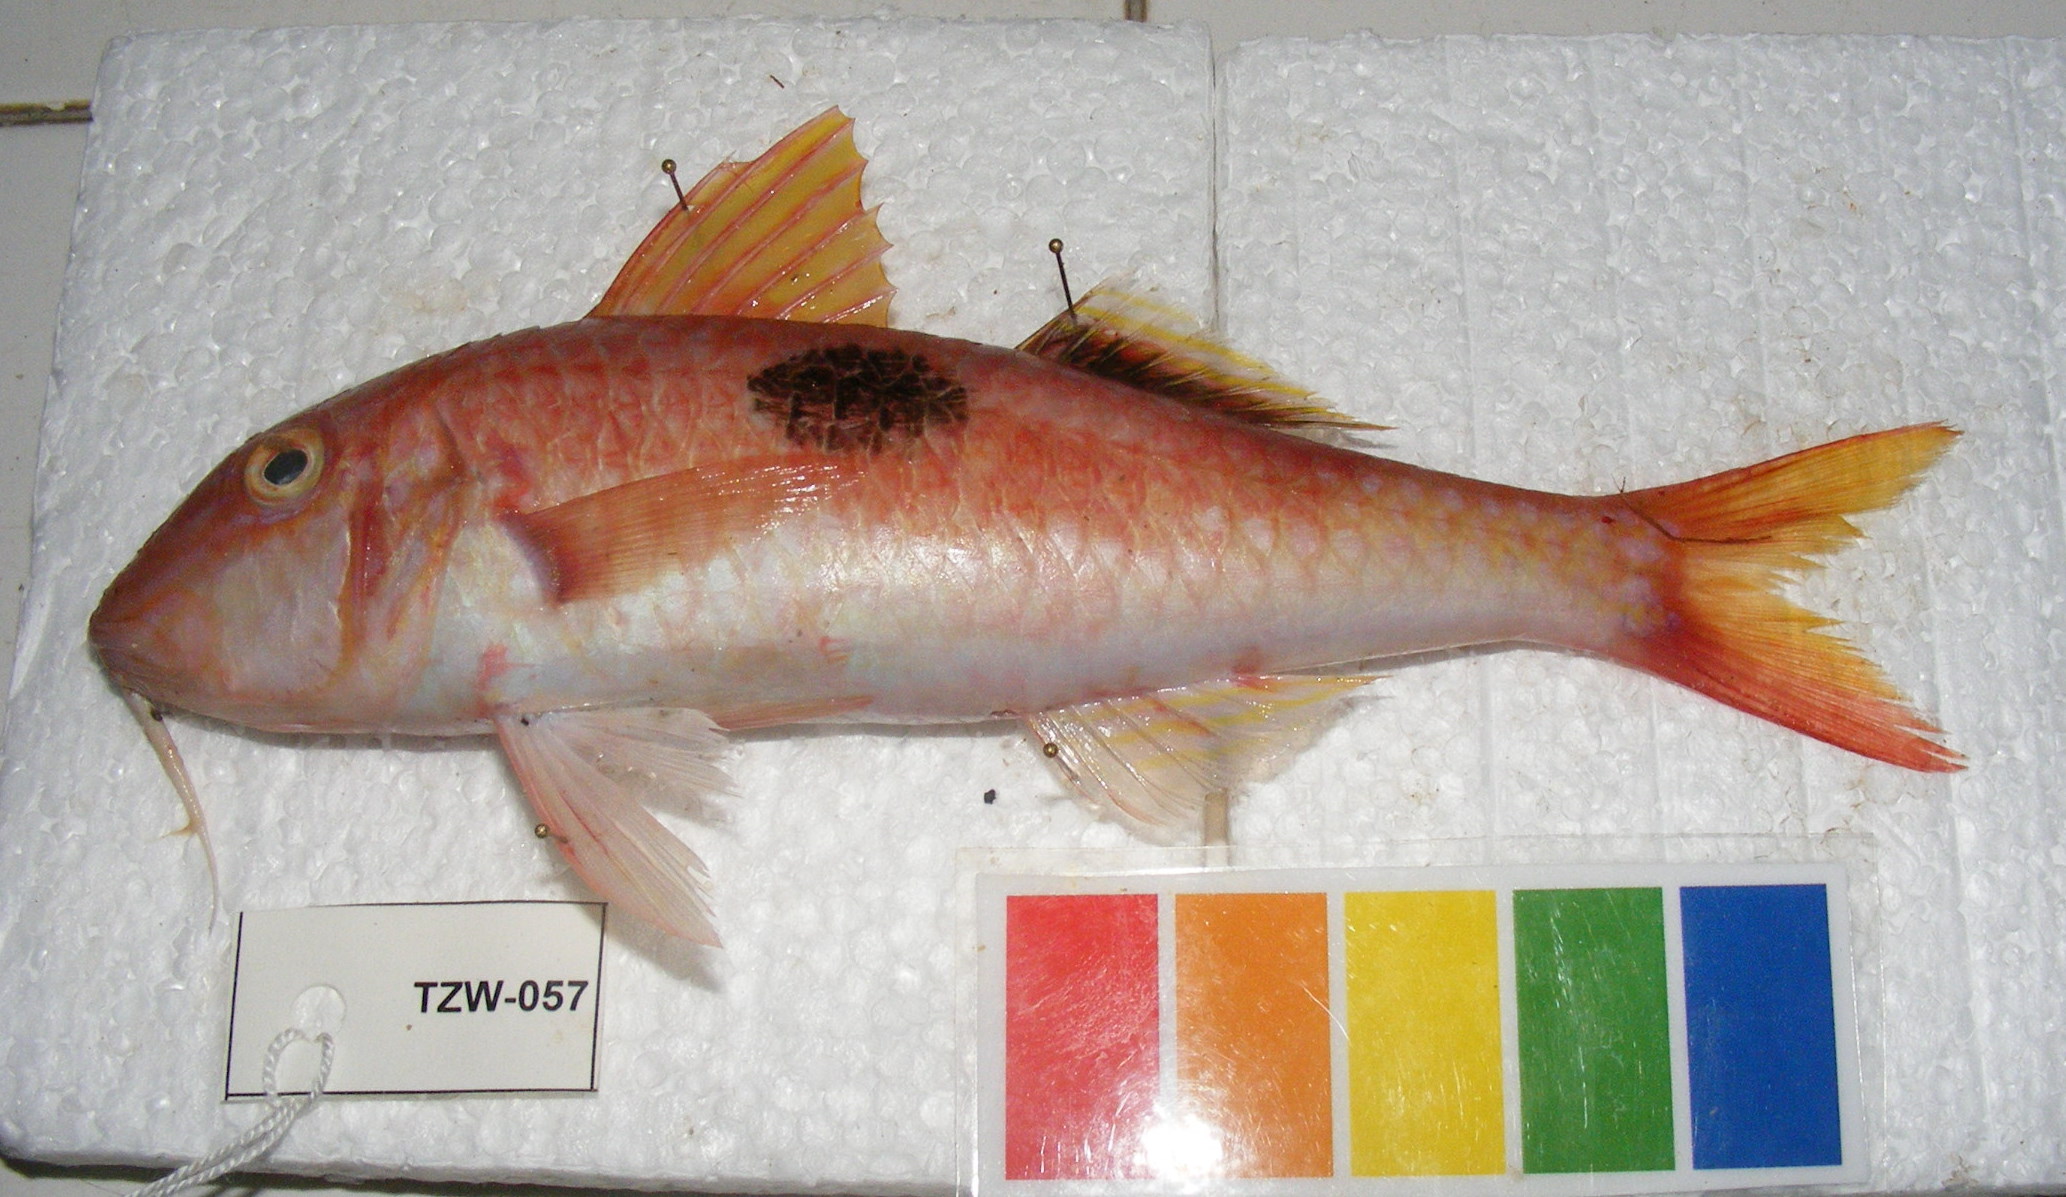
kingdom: Animalia
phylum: Chordata
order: Perciformes
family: Mullidae
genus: Parupeneus
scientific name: Parupeneus pleurostigma
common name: Sidespot goatfish
